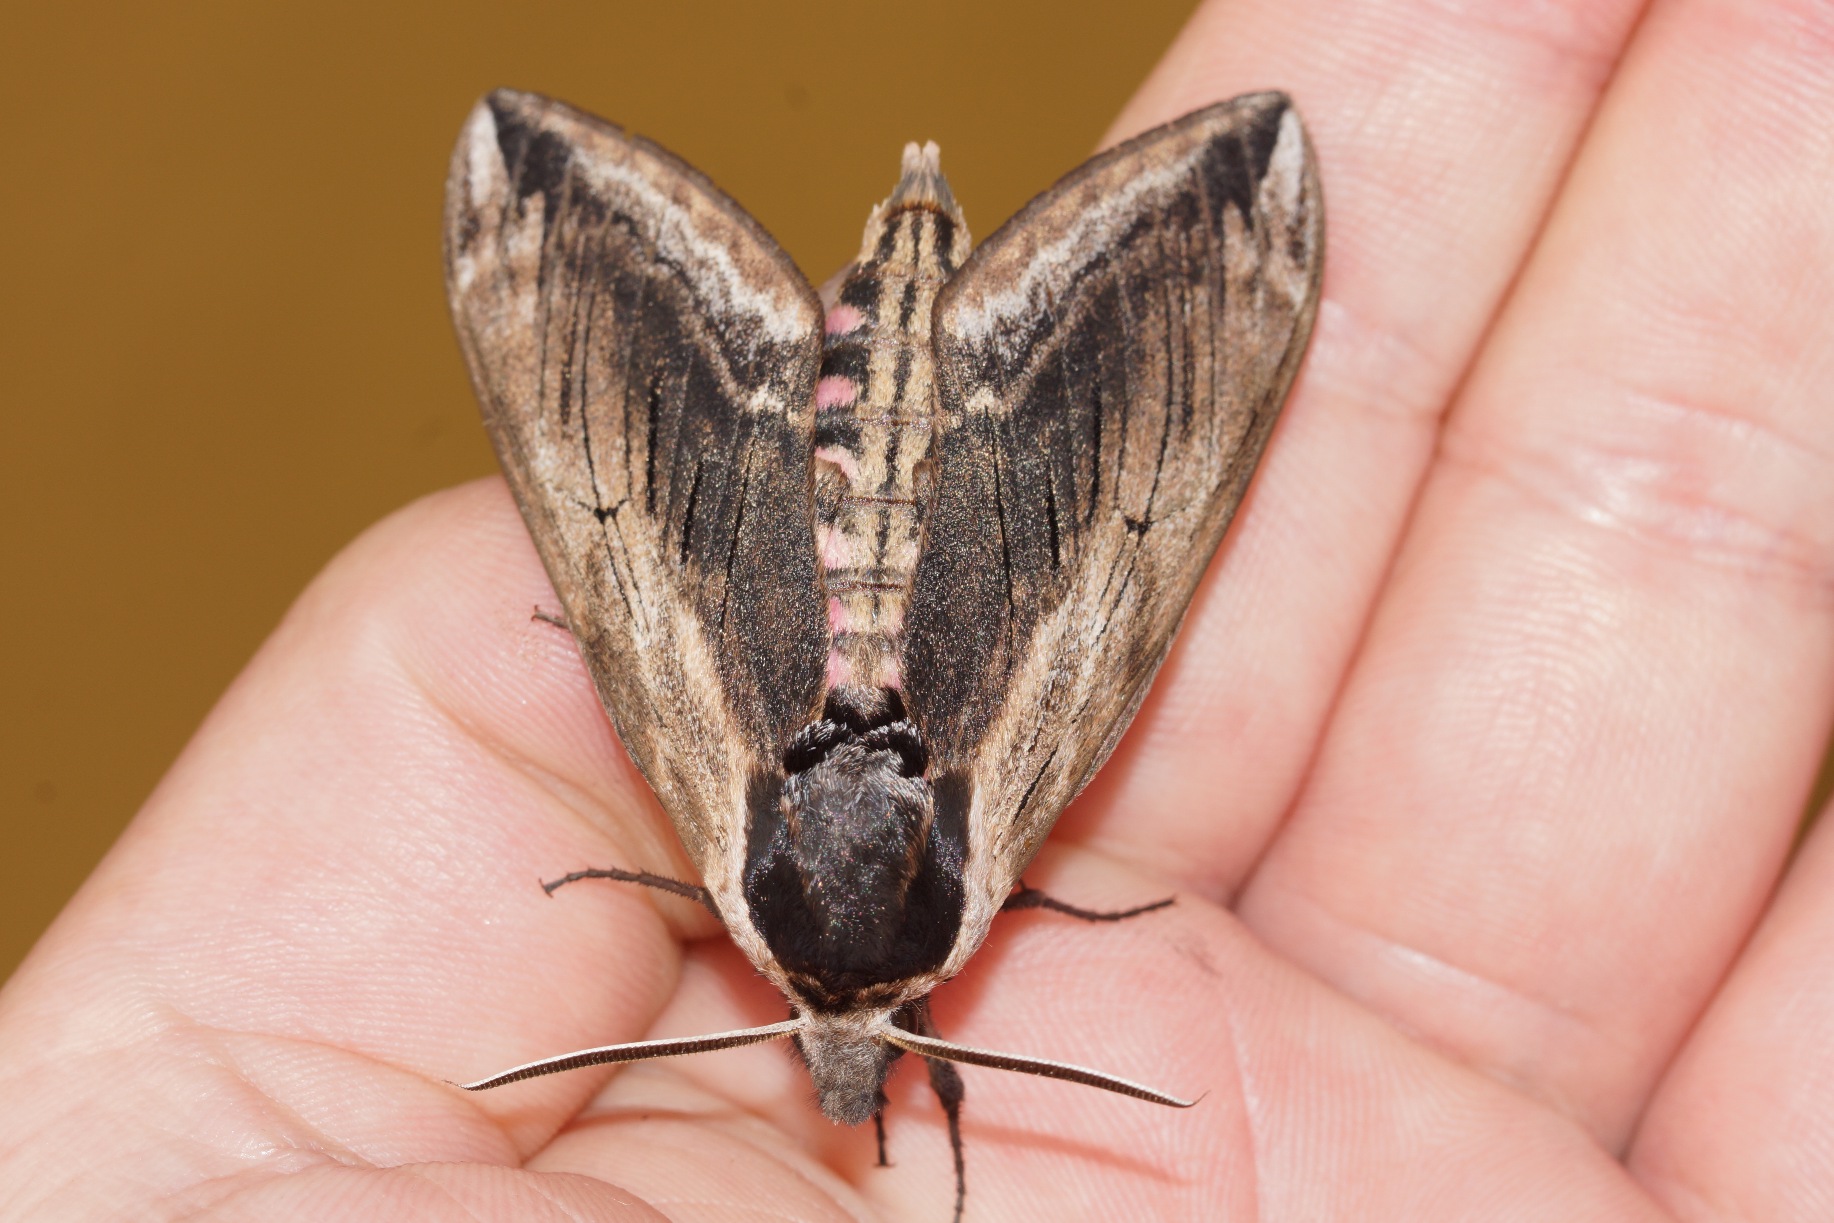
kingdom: Animalia
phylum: Arthropoda
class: Insecta
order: Lepidoptera
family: Sphingidae
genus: Sphinx
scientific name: Sphinx ligustri
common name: Ligustersværmer
